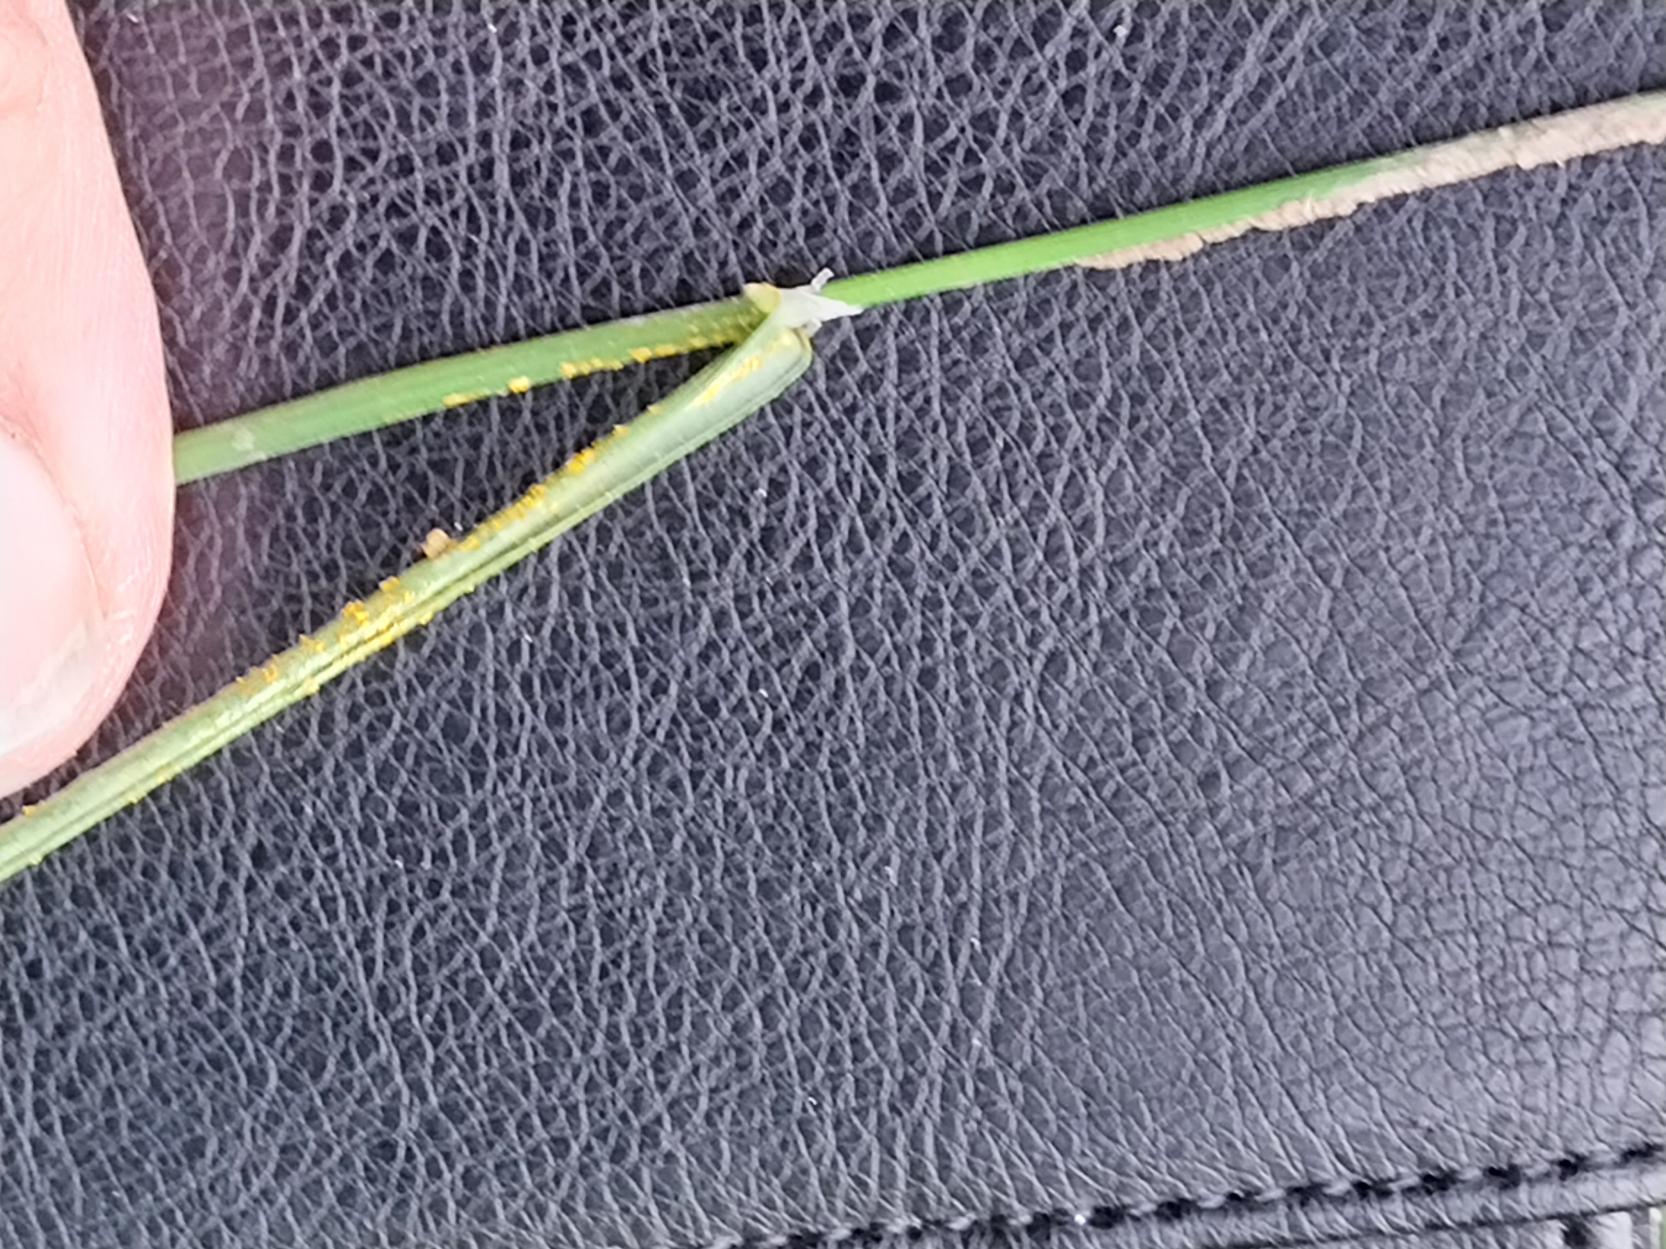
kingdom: Plantae
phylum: Tracheophyta
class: Liliopsida
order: Poales
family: Poaceae
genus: Poa
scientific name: Poa palustris
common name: Stortoppet rapgræs
